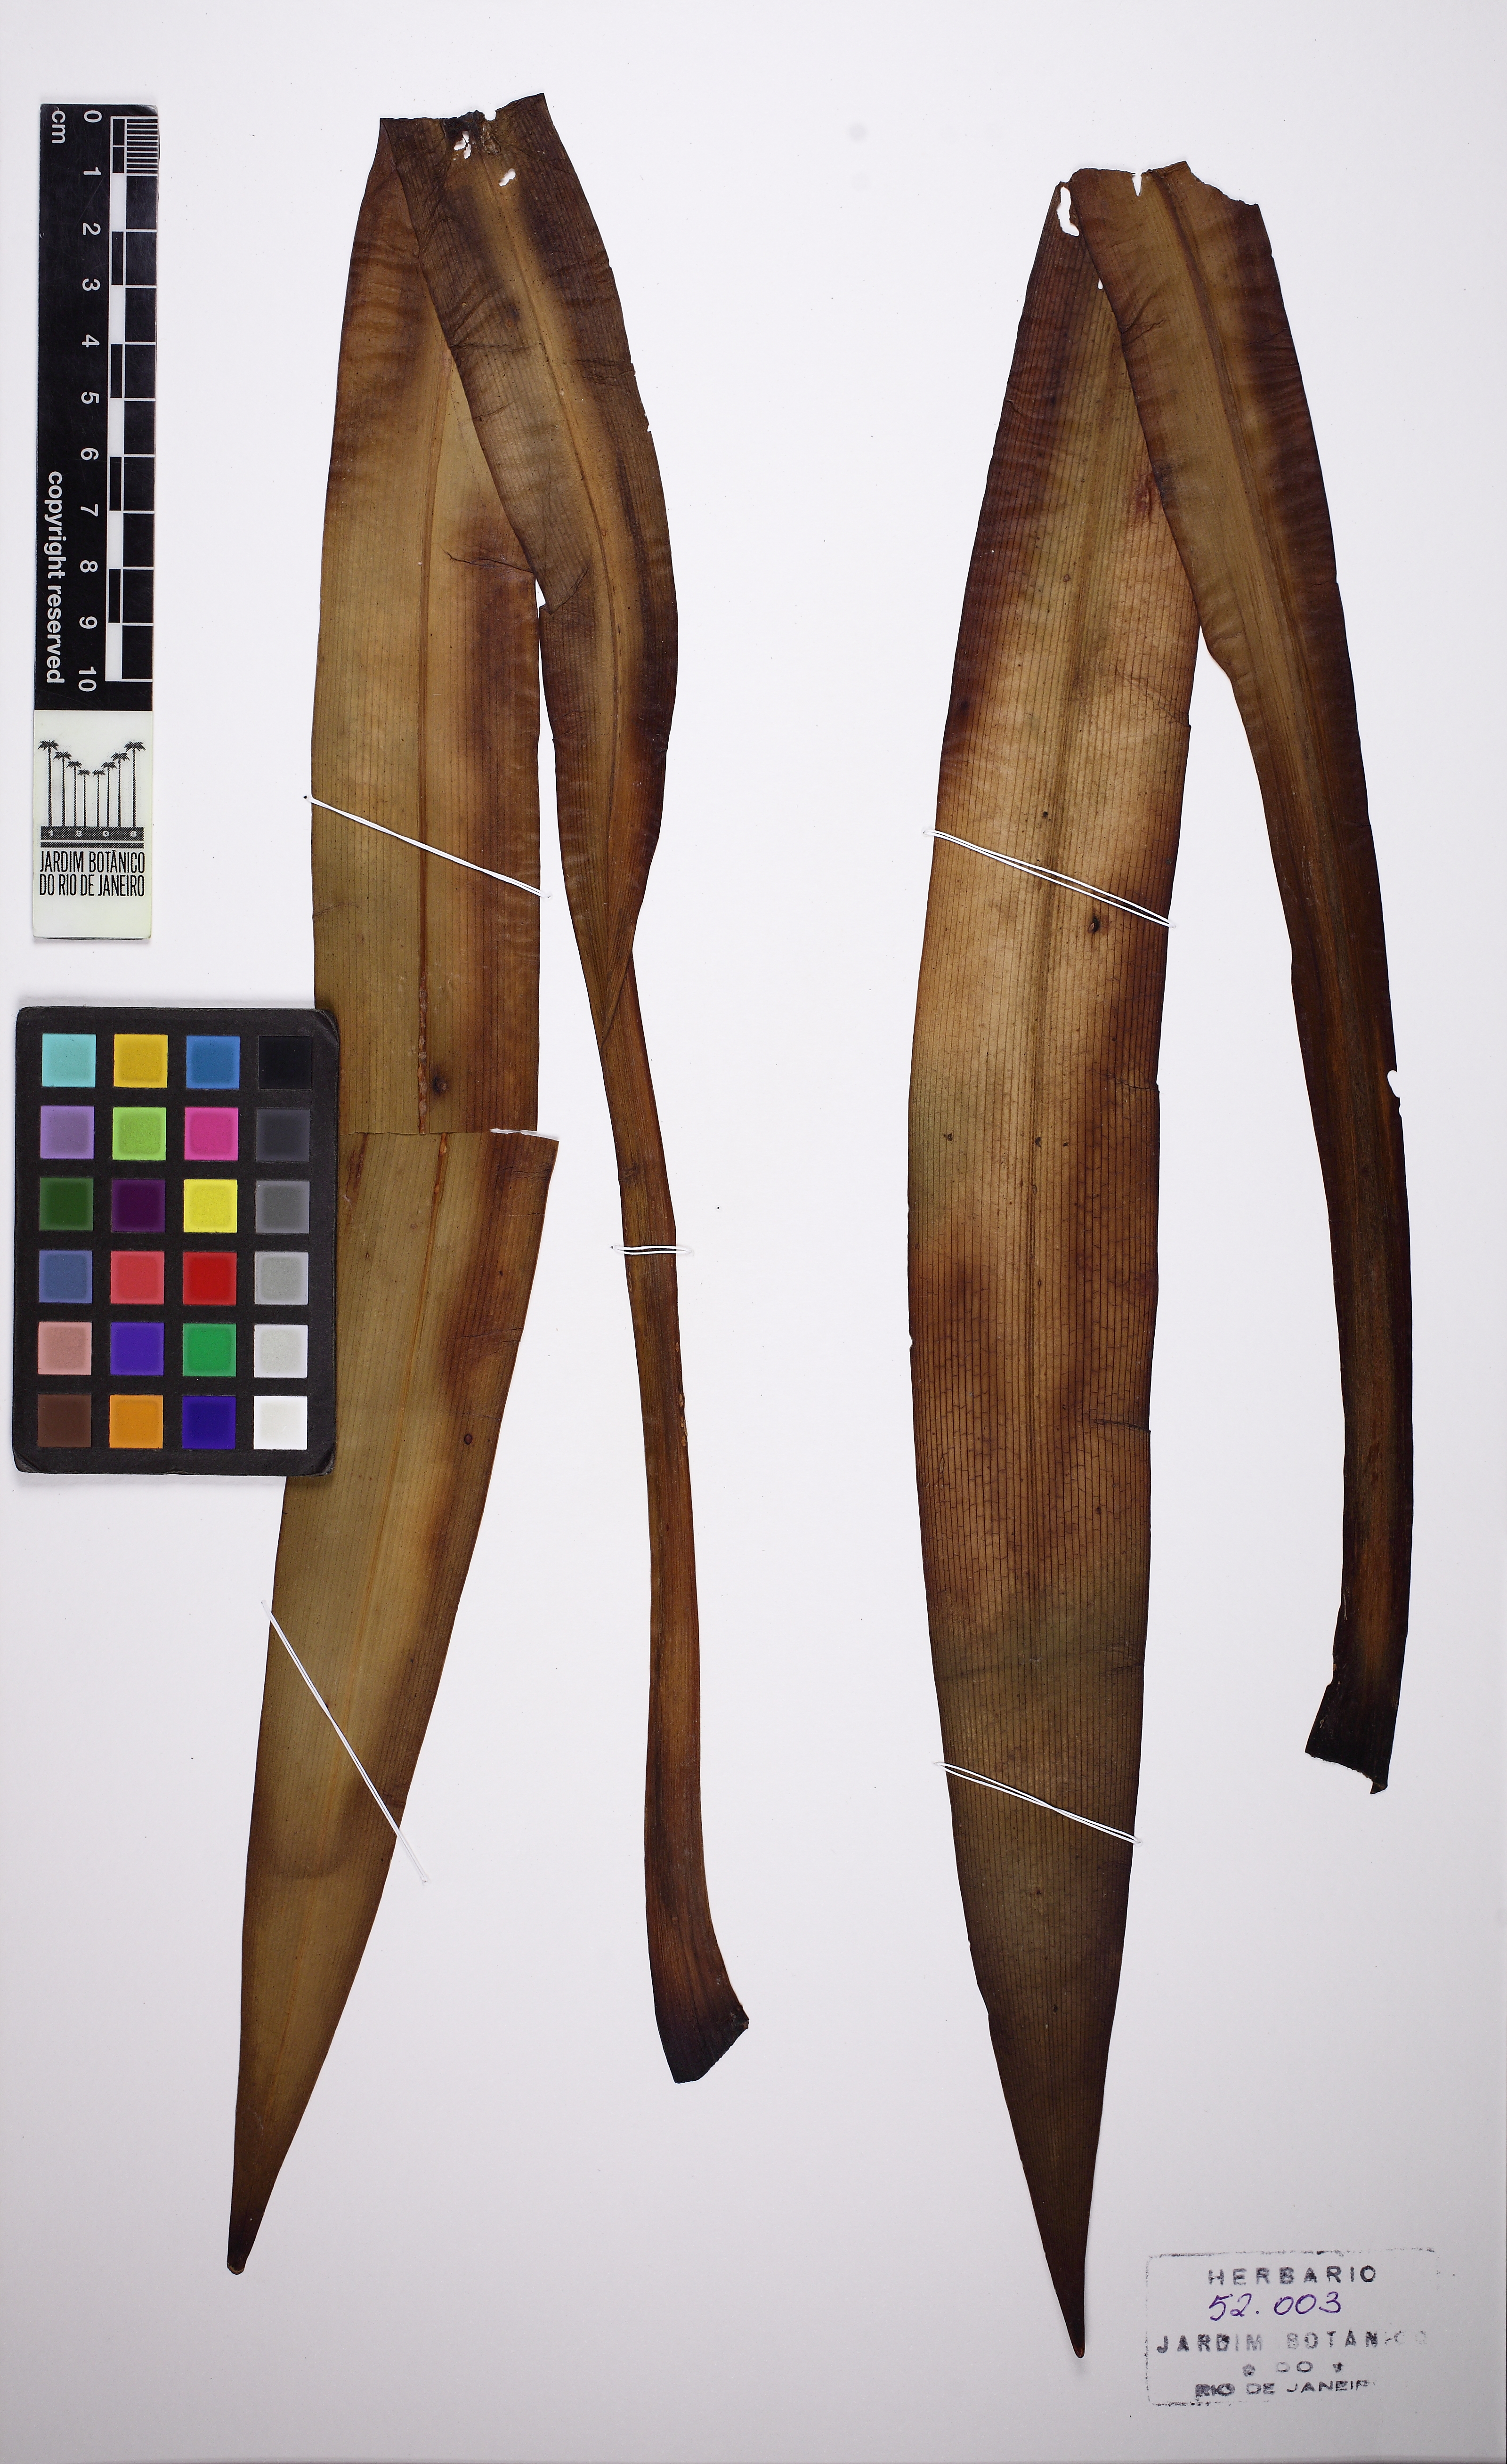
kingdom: Plantae
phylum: Tracheophyta
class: Liliopsida
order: Asparagales
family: Amaryllidaceae
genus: Hippeastrum
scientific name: Hippeastrum calyptratum
